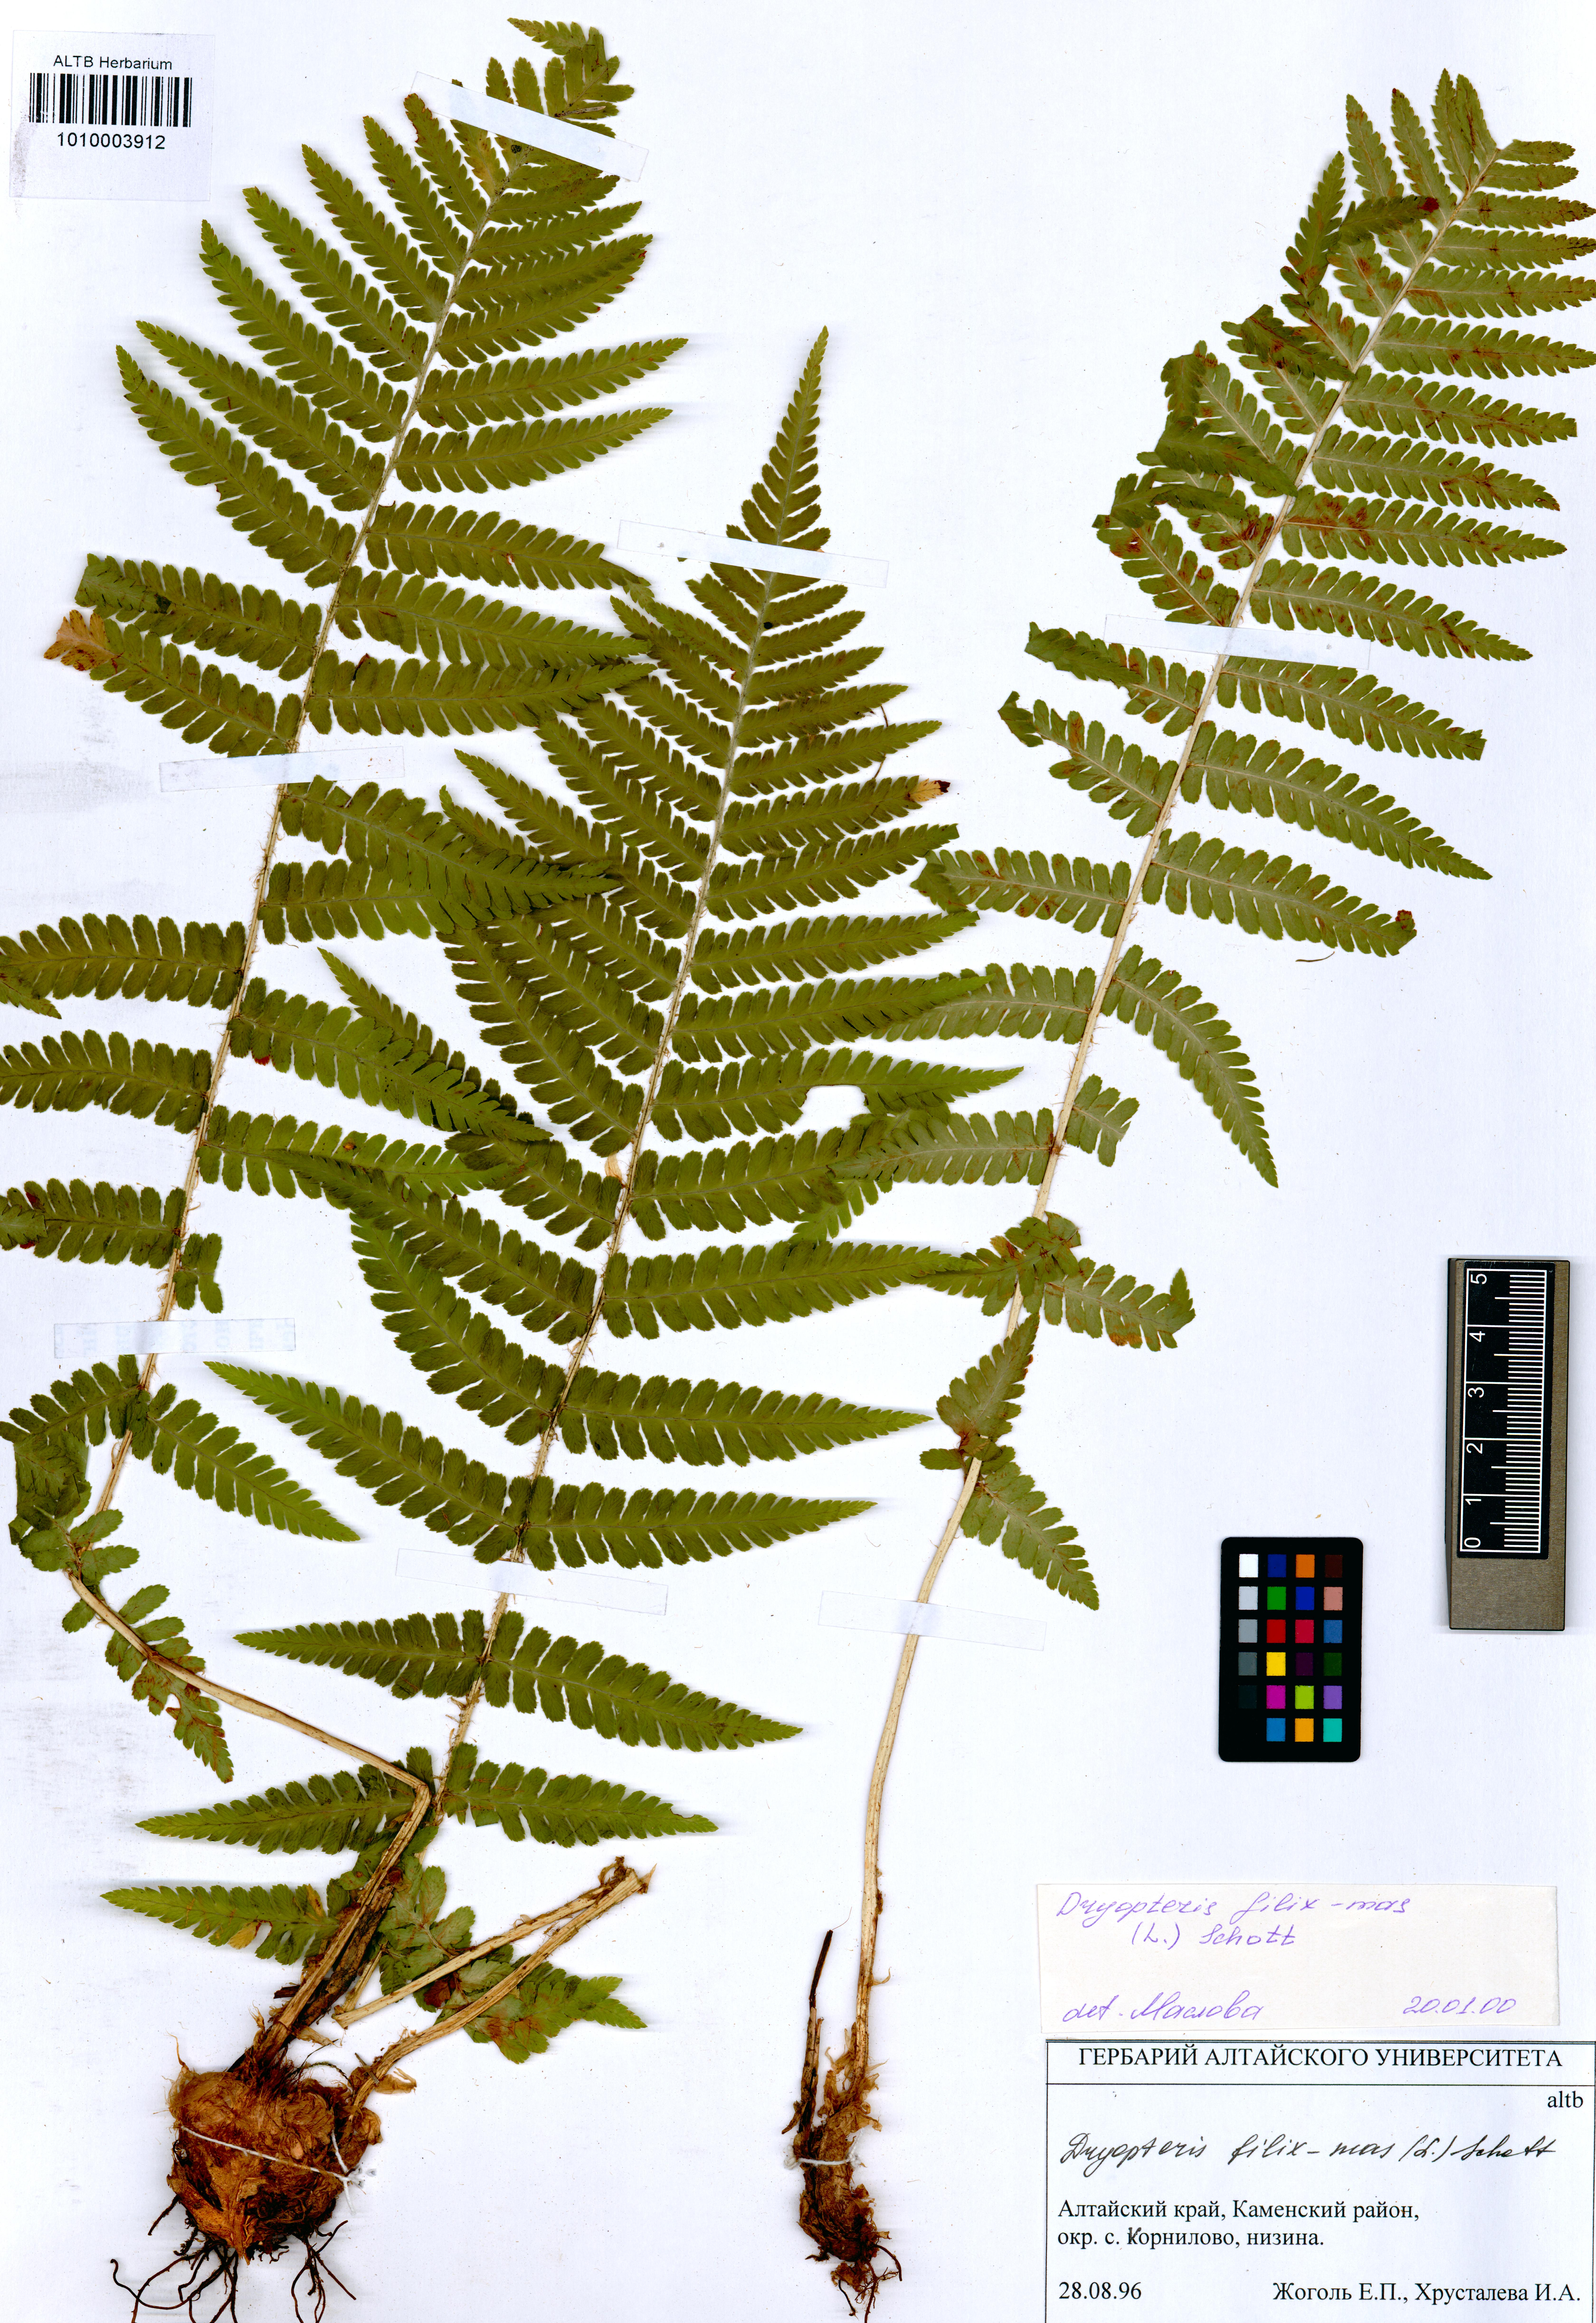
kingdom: Plantae
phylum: Tracheophyta
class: Polypodiopsida
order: Polypodiales
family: Dryopteridaceae
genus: Dryopteris
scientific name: Dryopteris filix-mas
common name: Male fern
